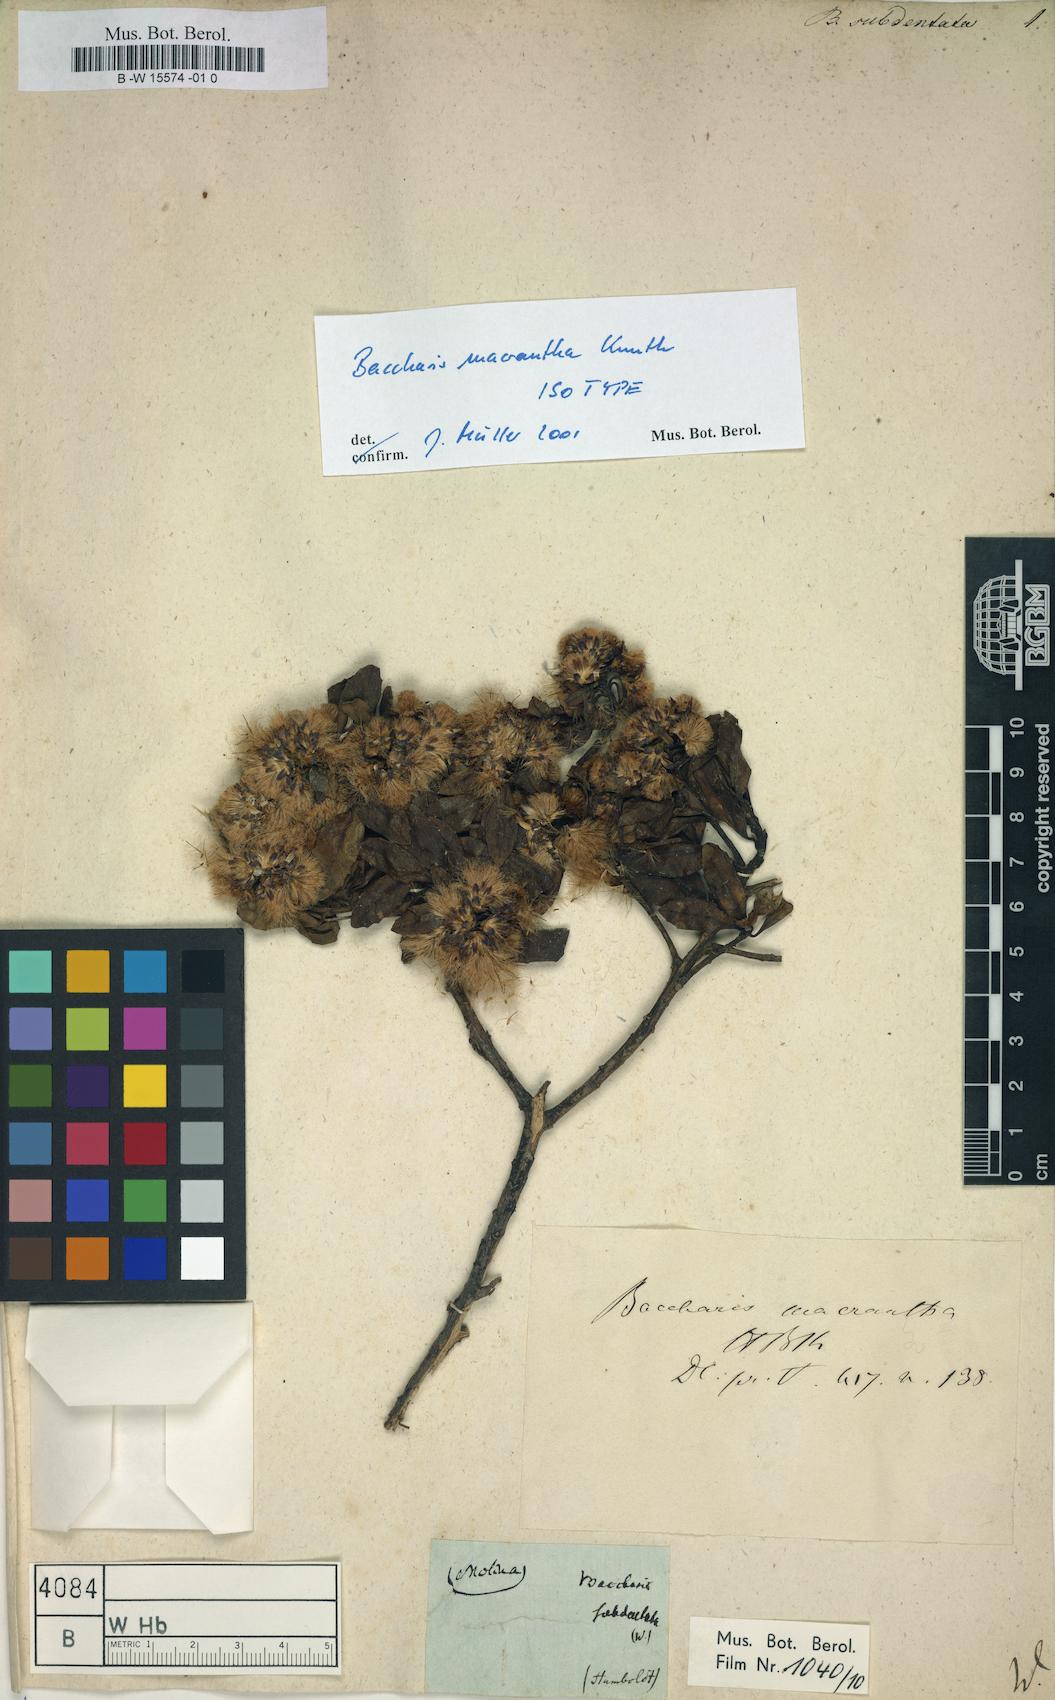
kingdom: Plantae
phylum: Tracheophyta
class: Magnoliopsida
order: Asterales
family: Asteraceae
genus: Baccharis
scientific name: Baccharis subdentata
